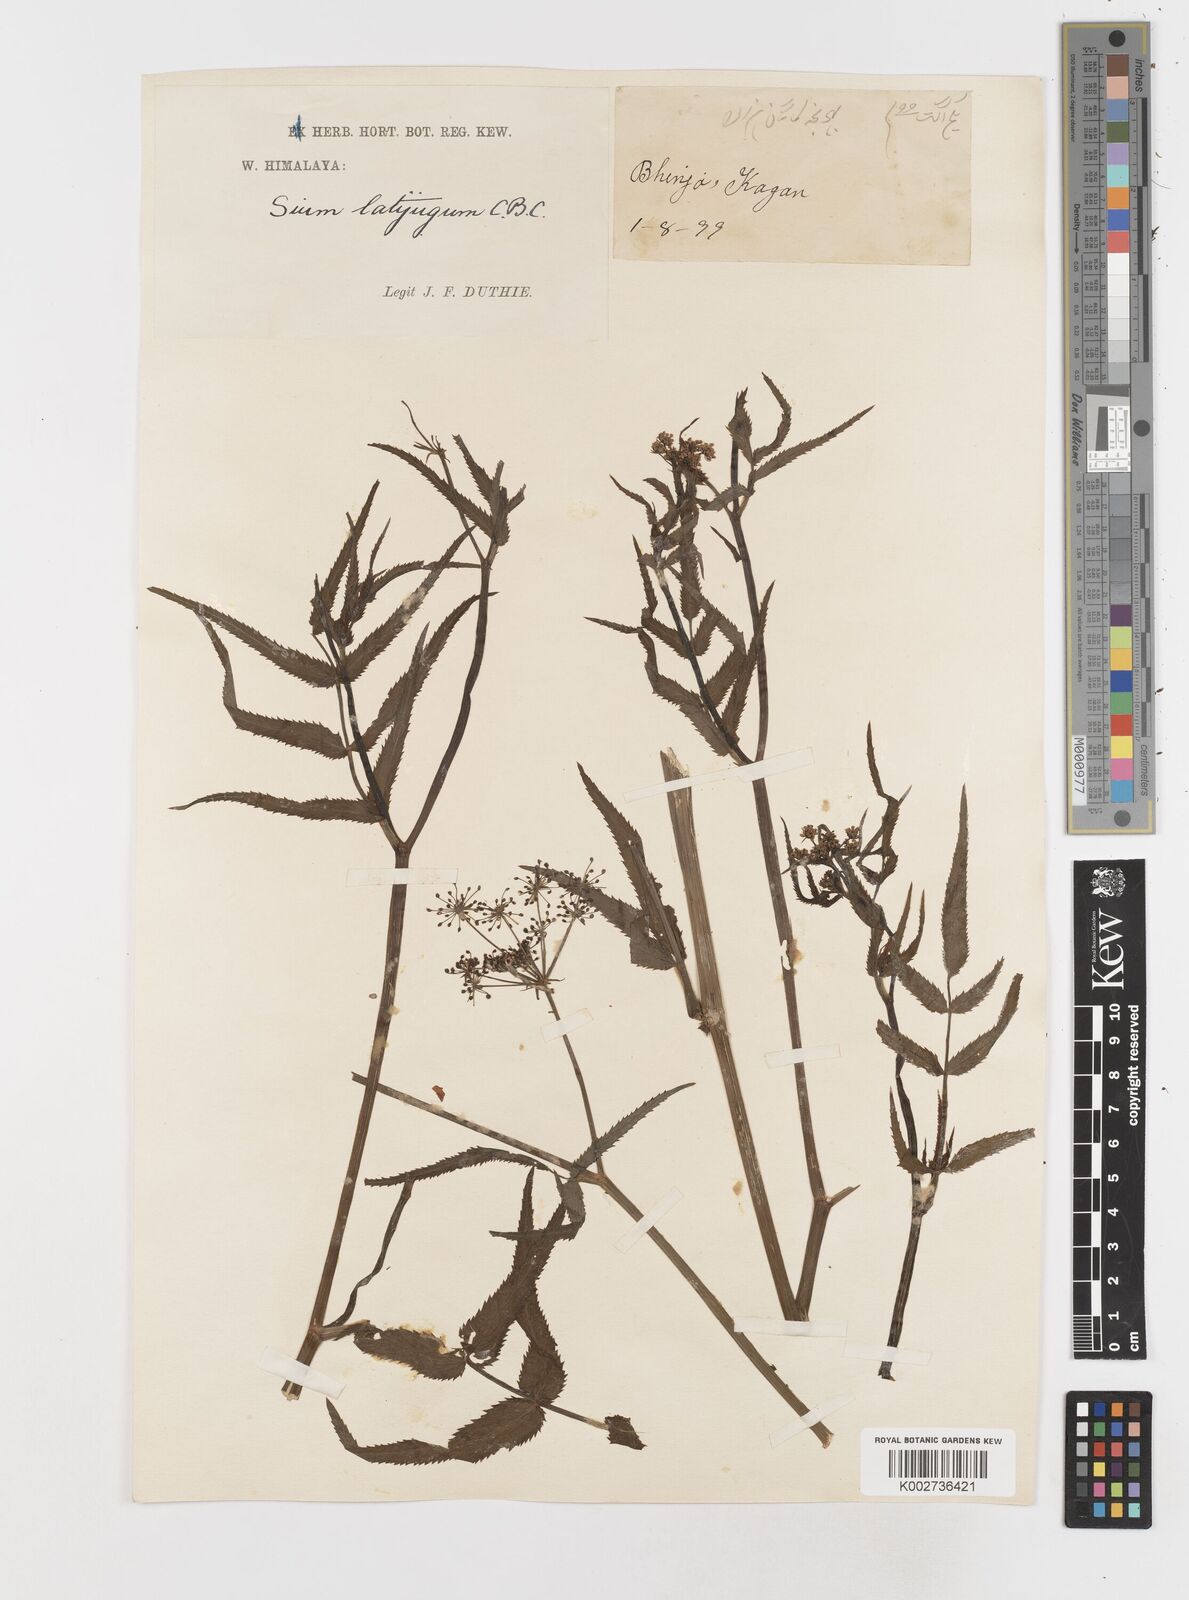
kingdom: Plantae
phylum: Tracheophyta
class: Magnoliopsida
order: Apiales
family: Apiaceae
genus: Sium
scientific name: Sium sisarum
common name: Skirret
